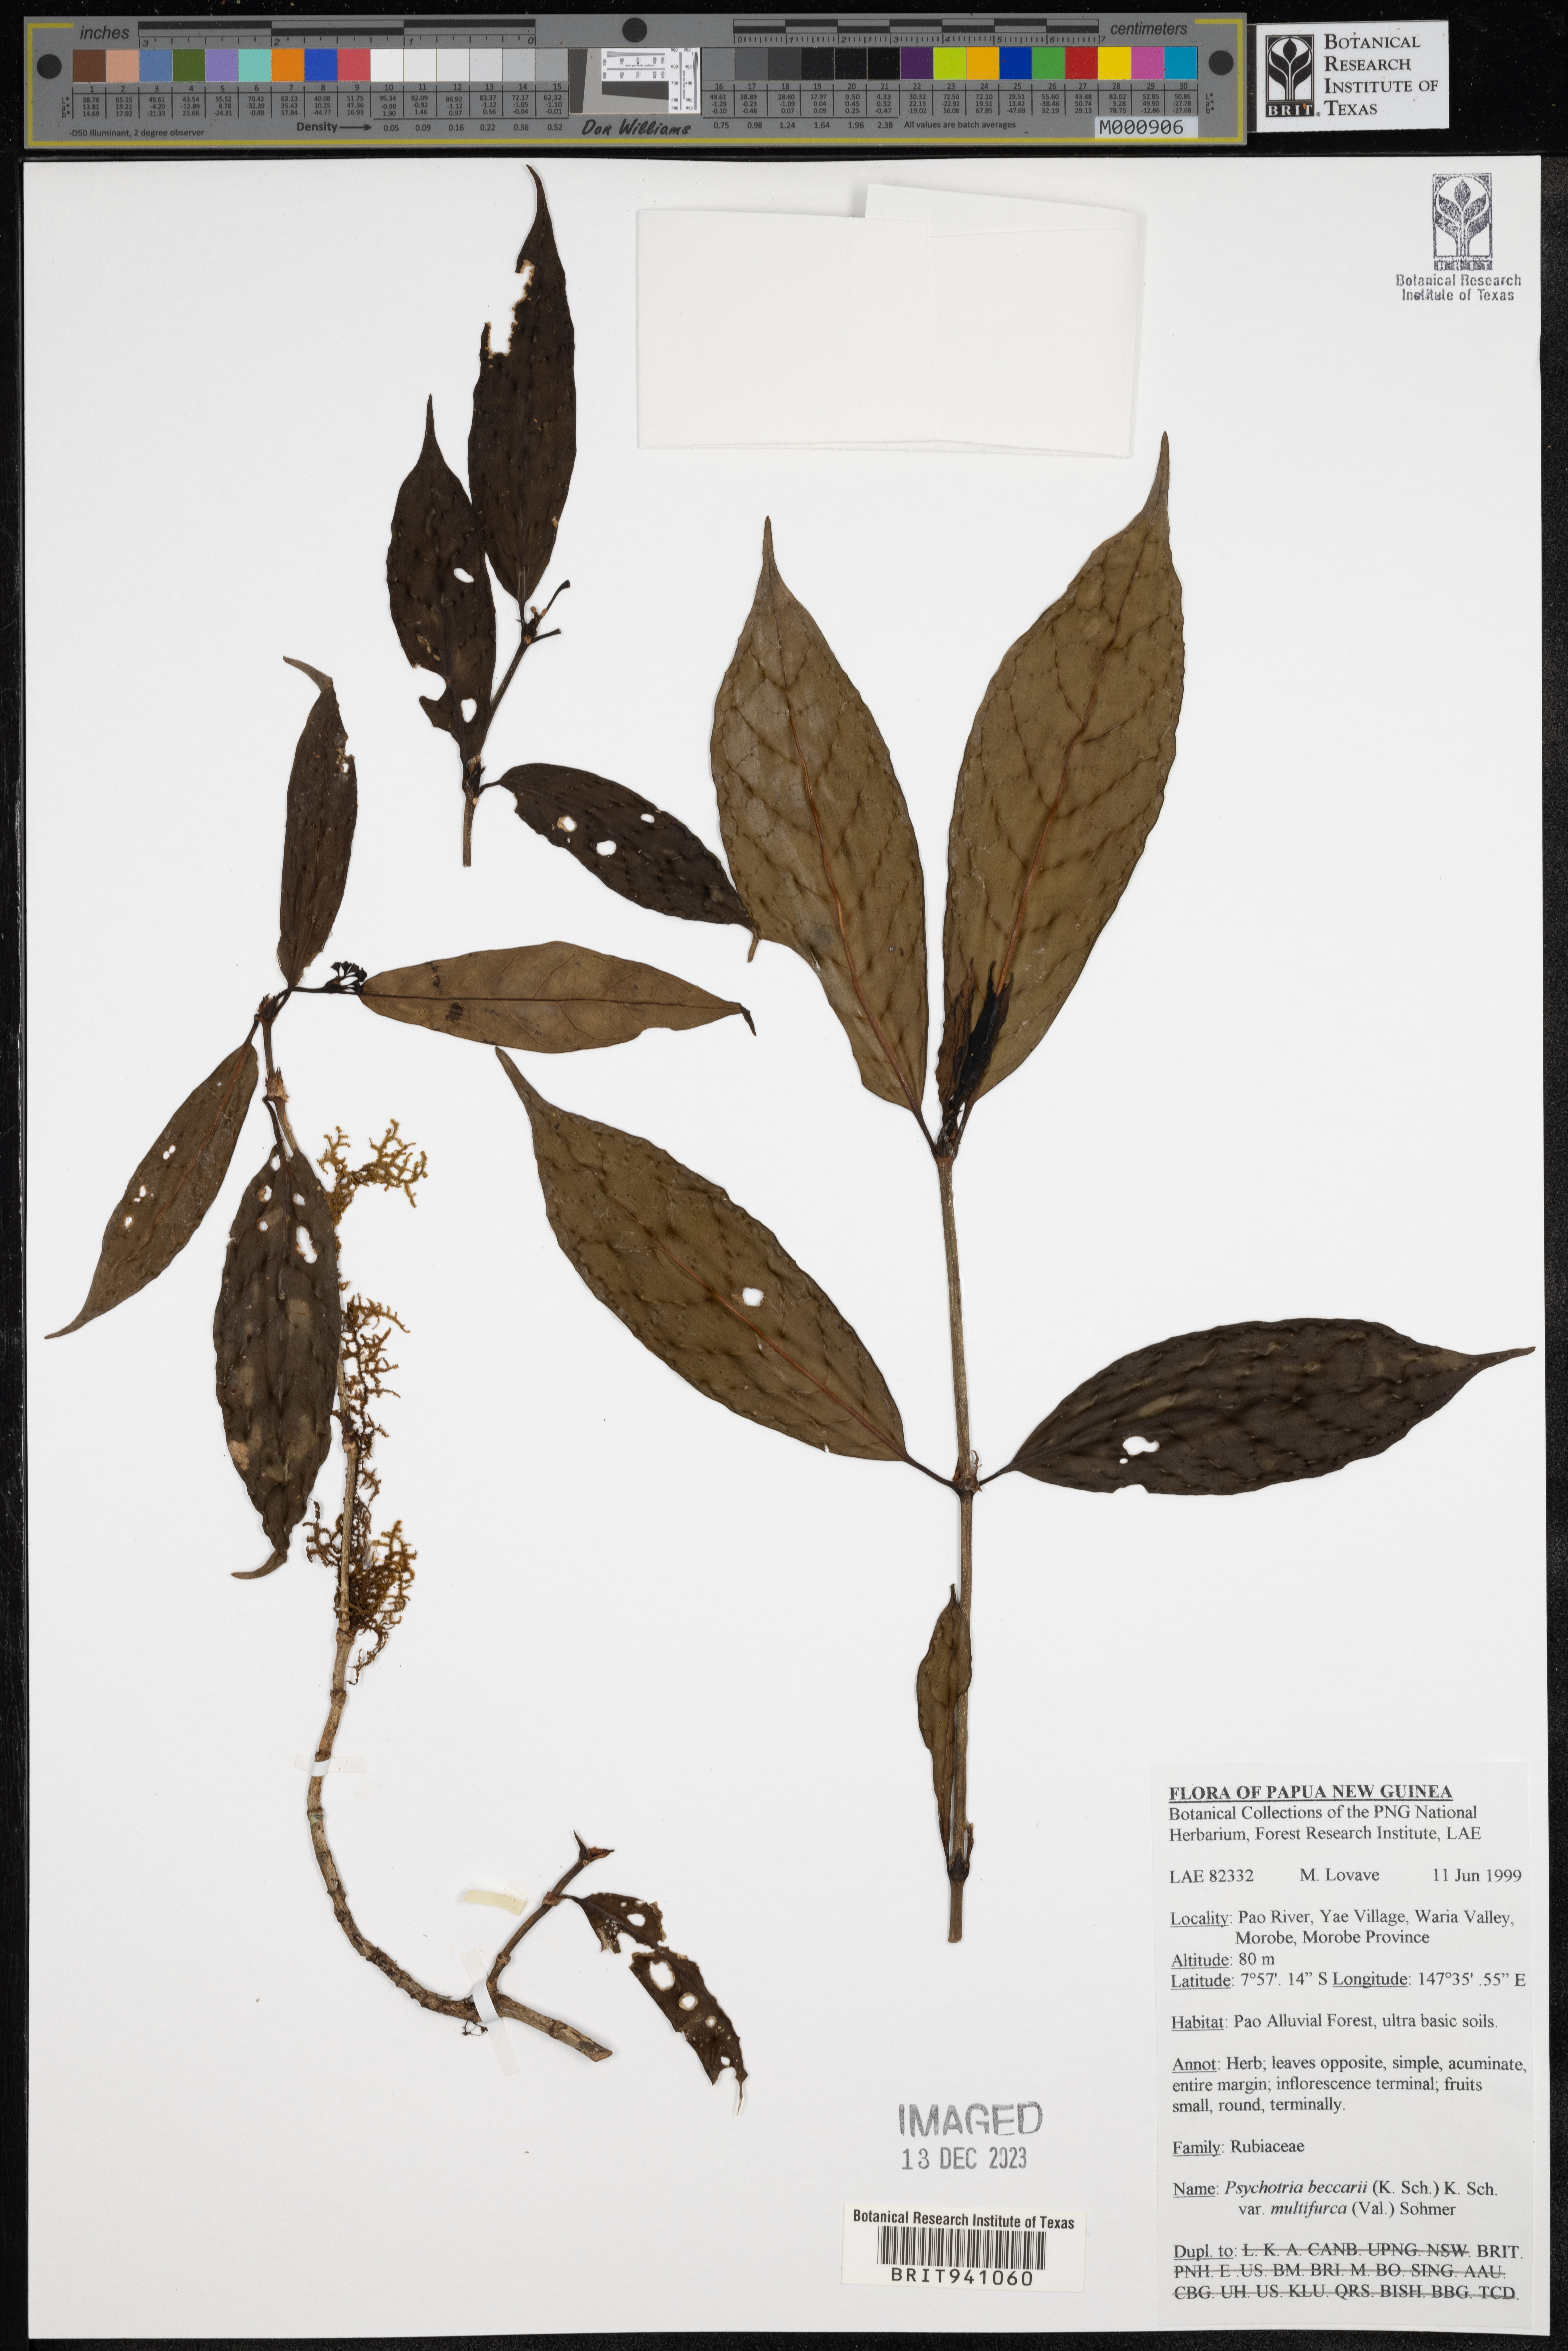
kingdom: Plantae
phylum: Tracheophyta
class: Magnoliopsida
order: Gentianales
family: Rubiaceae
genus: Psychotria
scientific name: Psychotria
